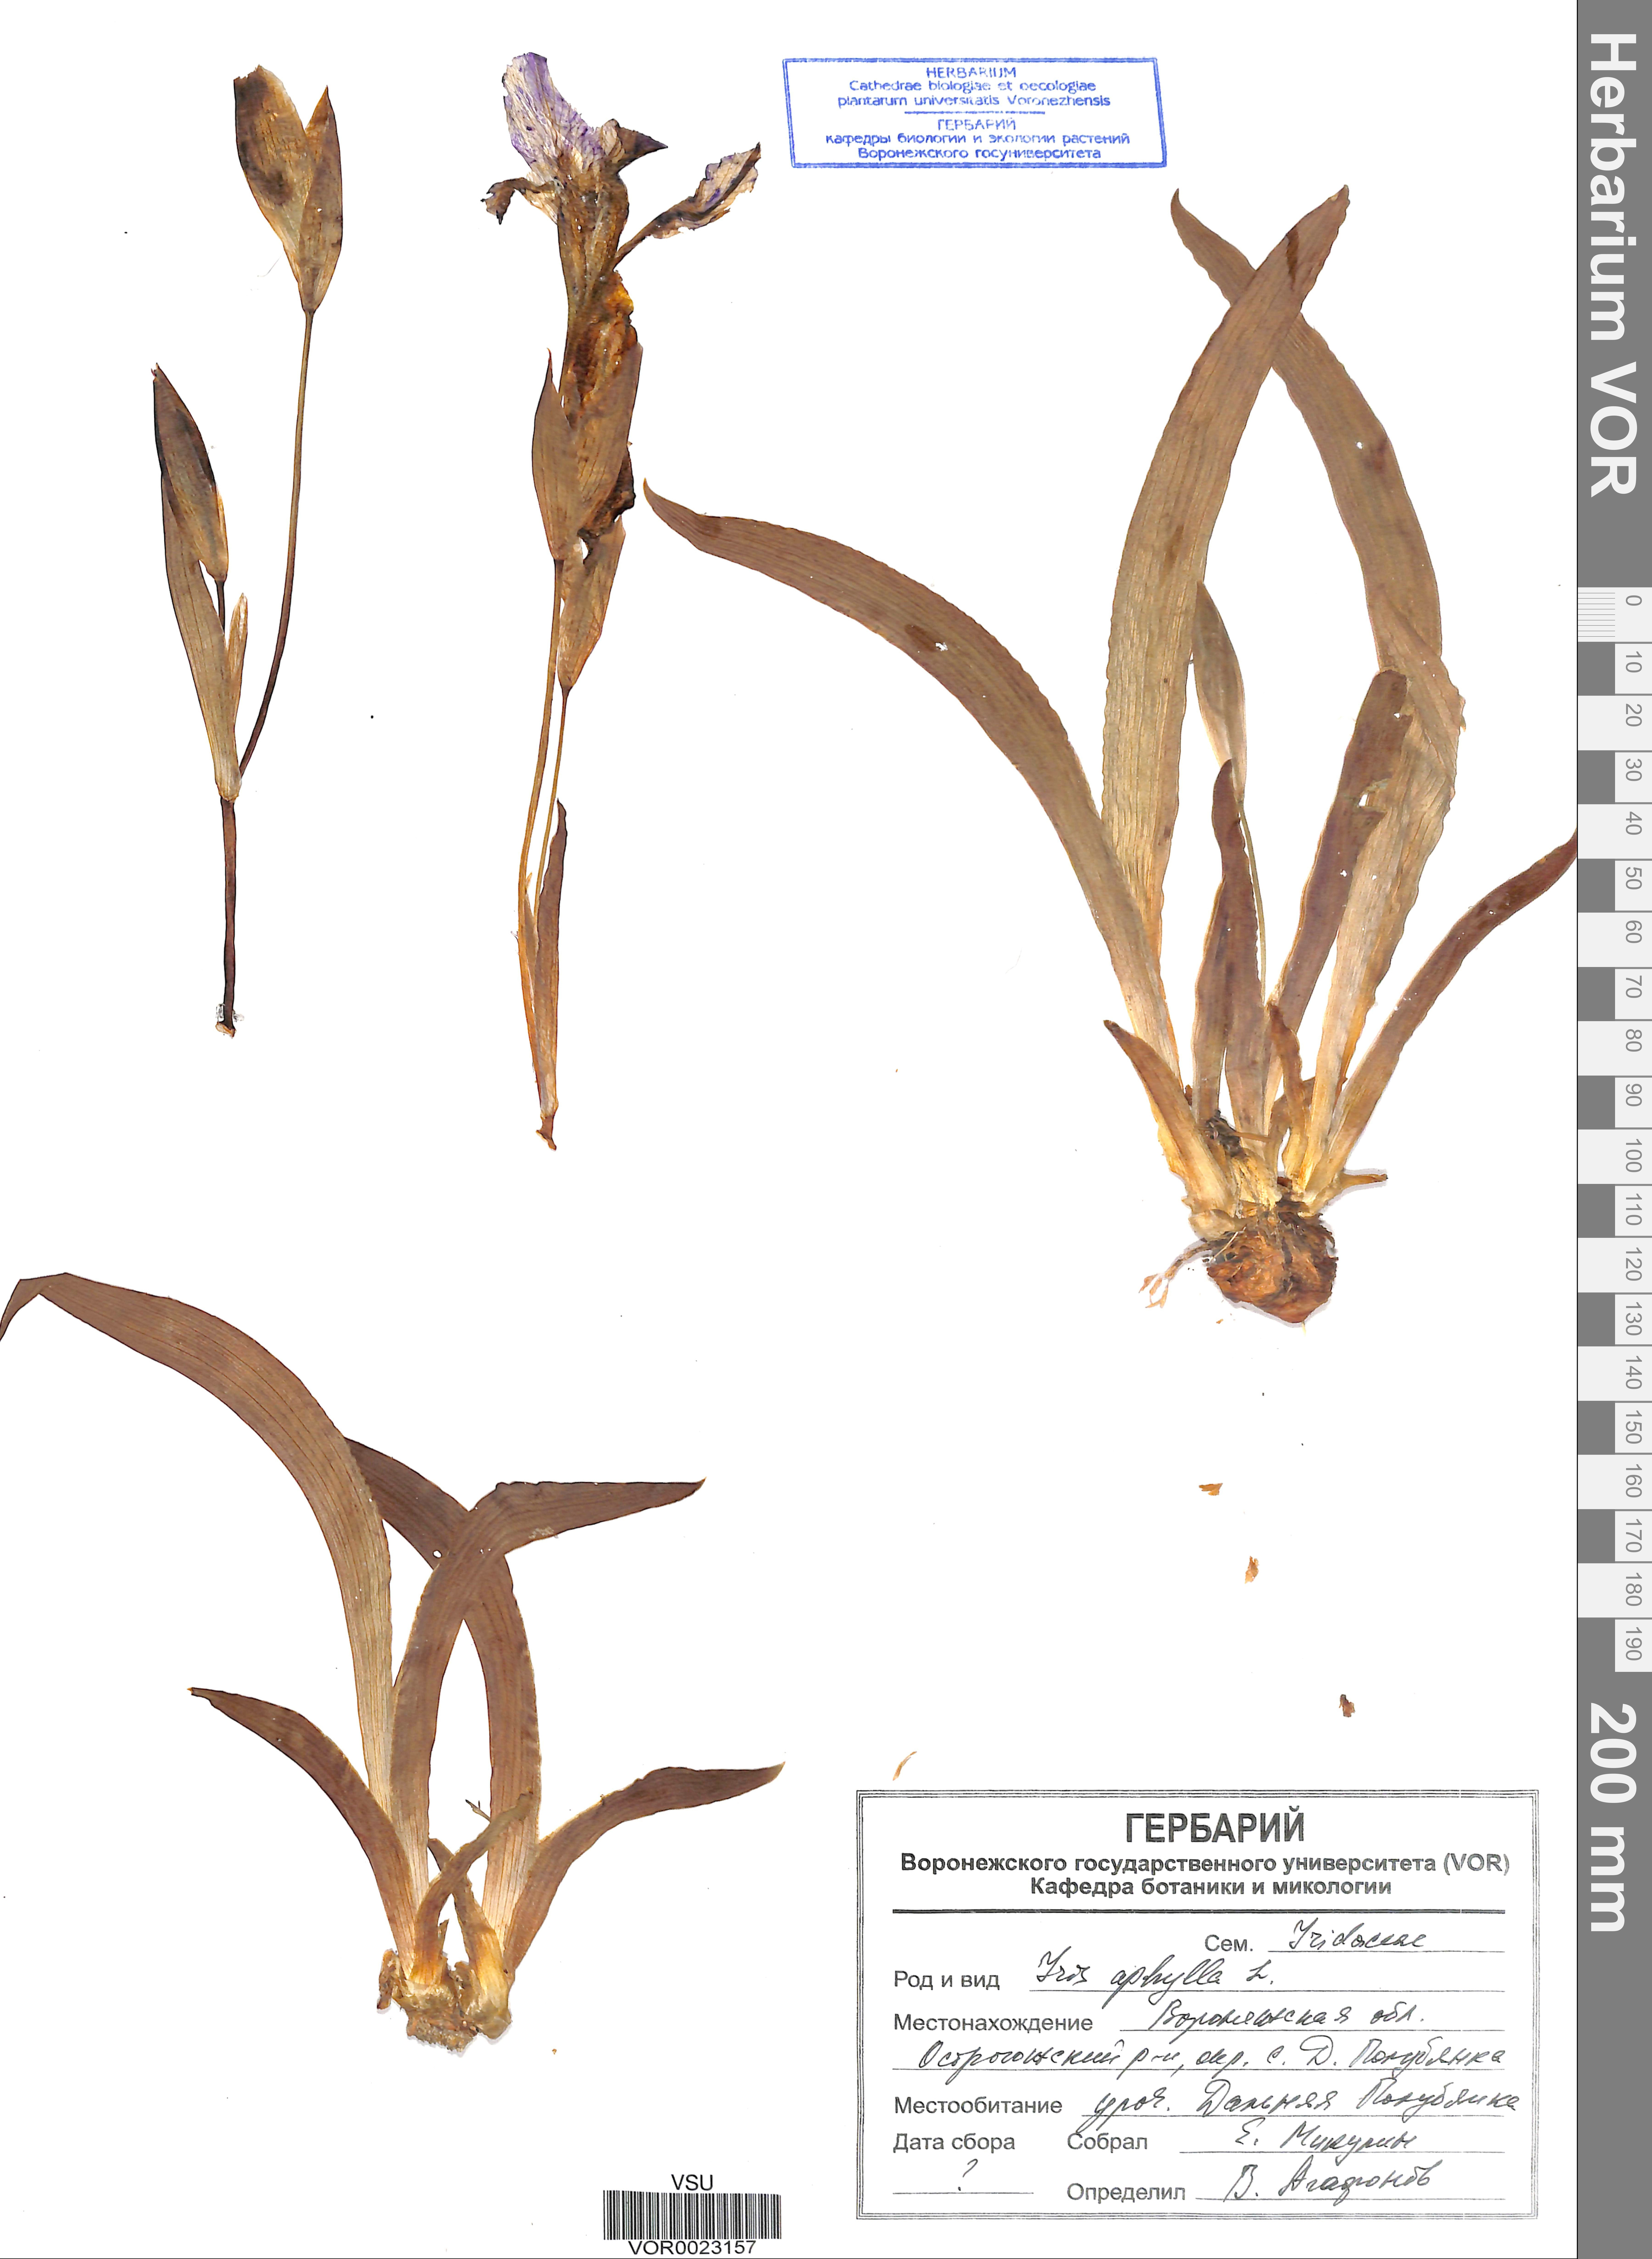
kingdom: Plantae
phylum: Tracheophyta
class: Liliopsida
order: Asparagales
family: Iridaceae
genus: Iris
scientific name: Iris aphylla
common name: Stool iris
